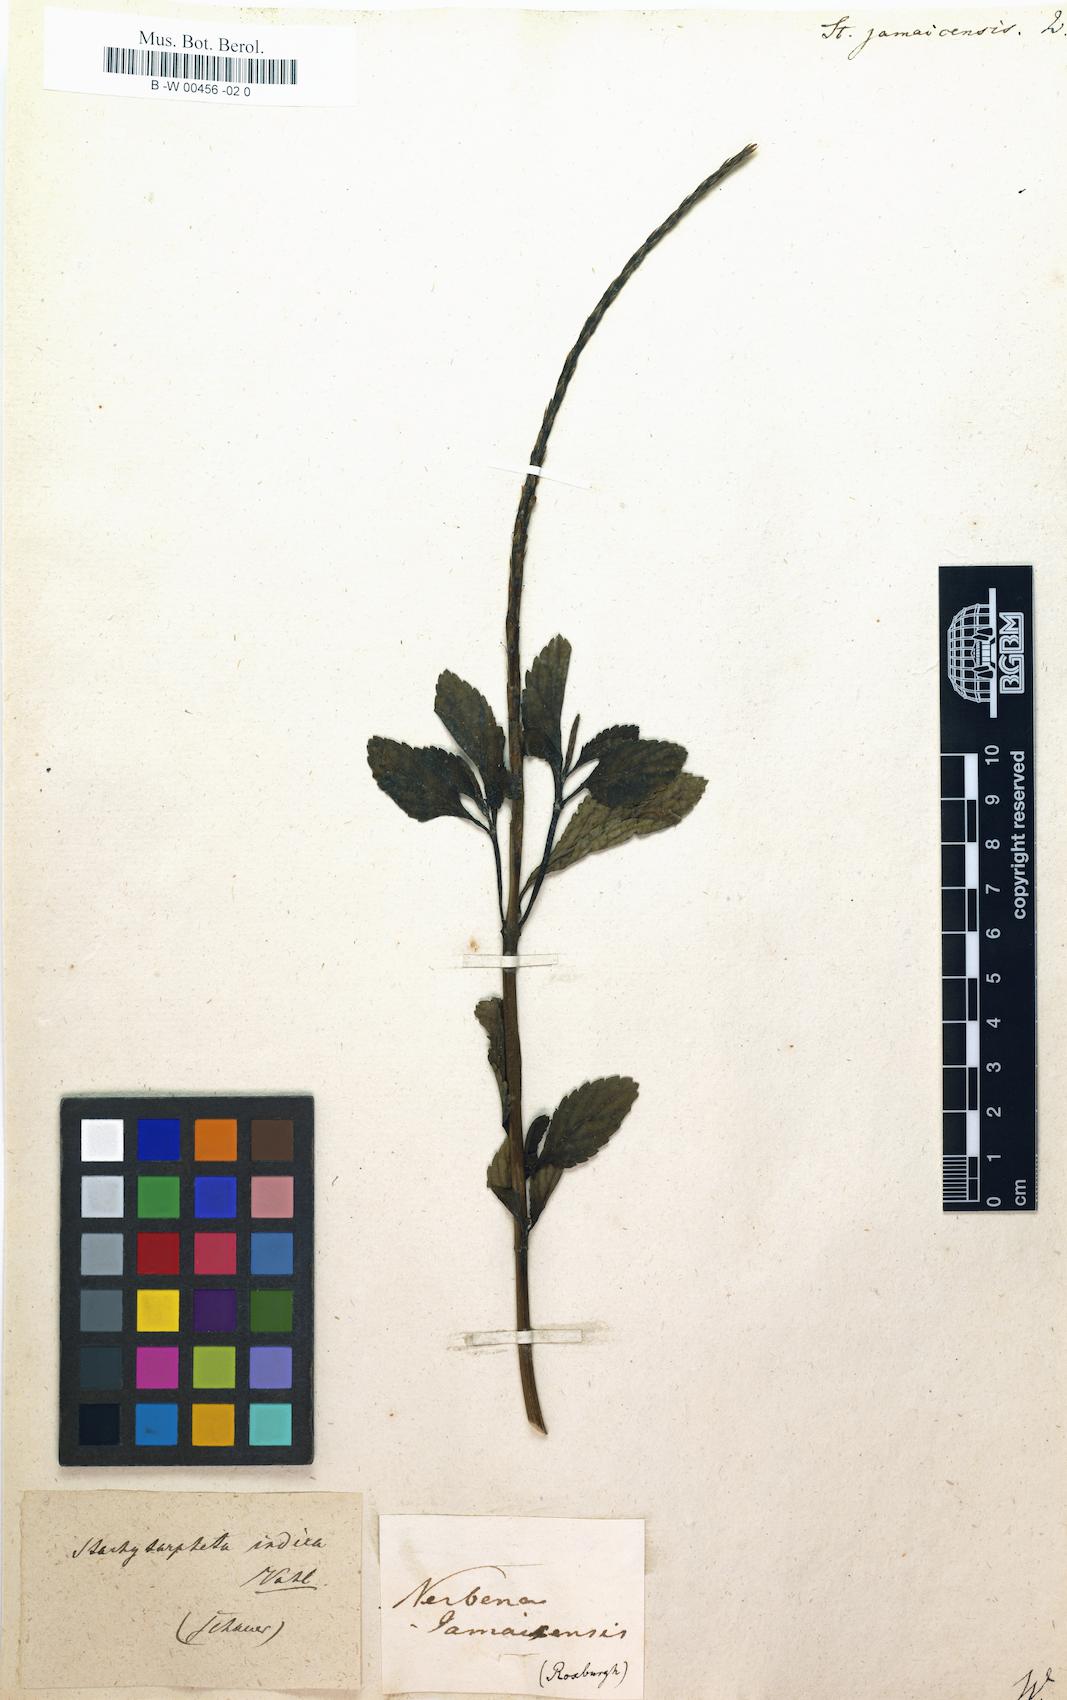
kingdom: Plantae
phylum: Tracheophyta
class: Magnoliopsida
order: Lamiales
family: Verbenaceae
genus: Stachytarpheta
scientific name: Stachytarpheta jamaicensis
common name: Light-blue snakeweed
